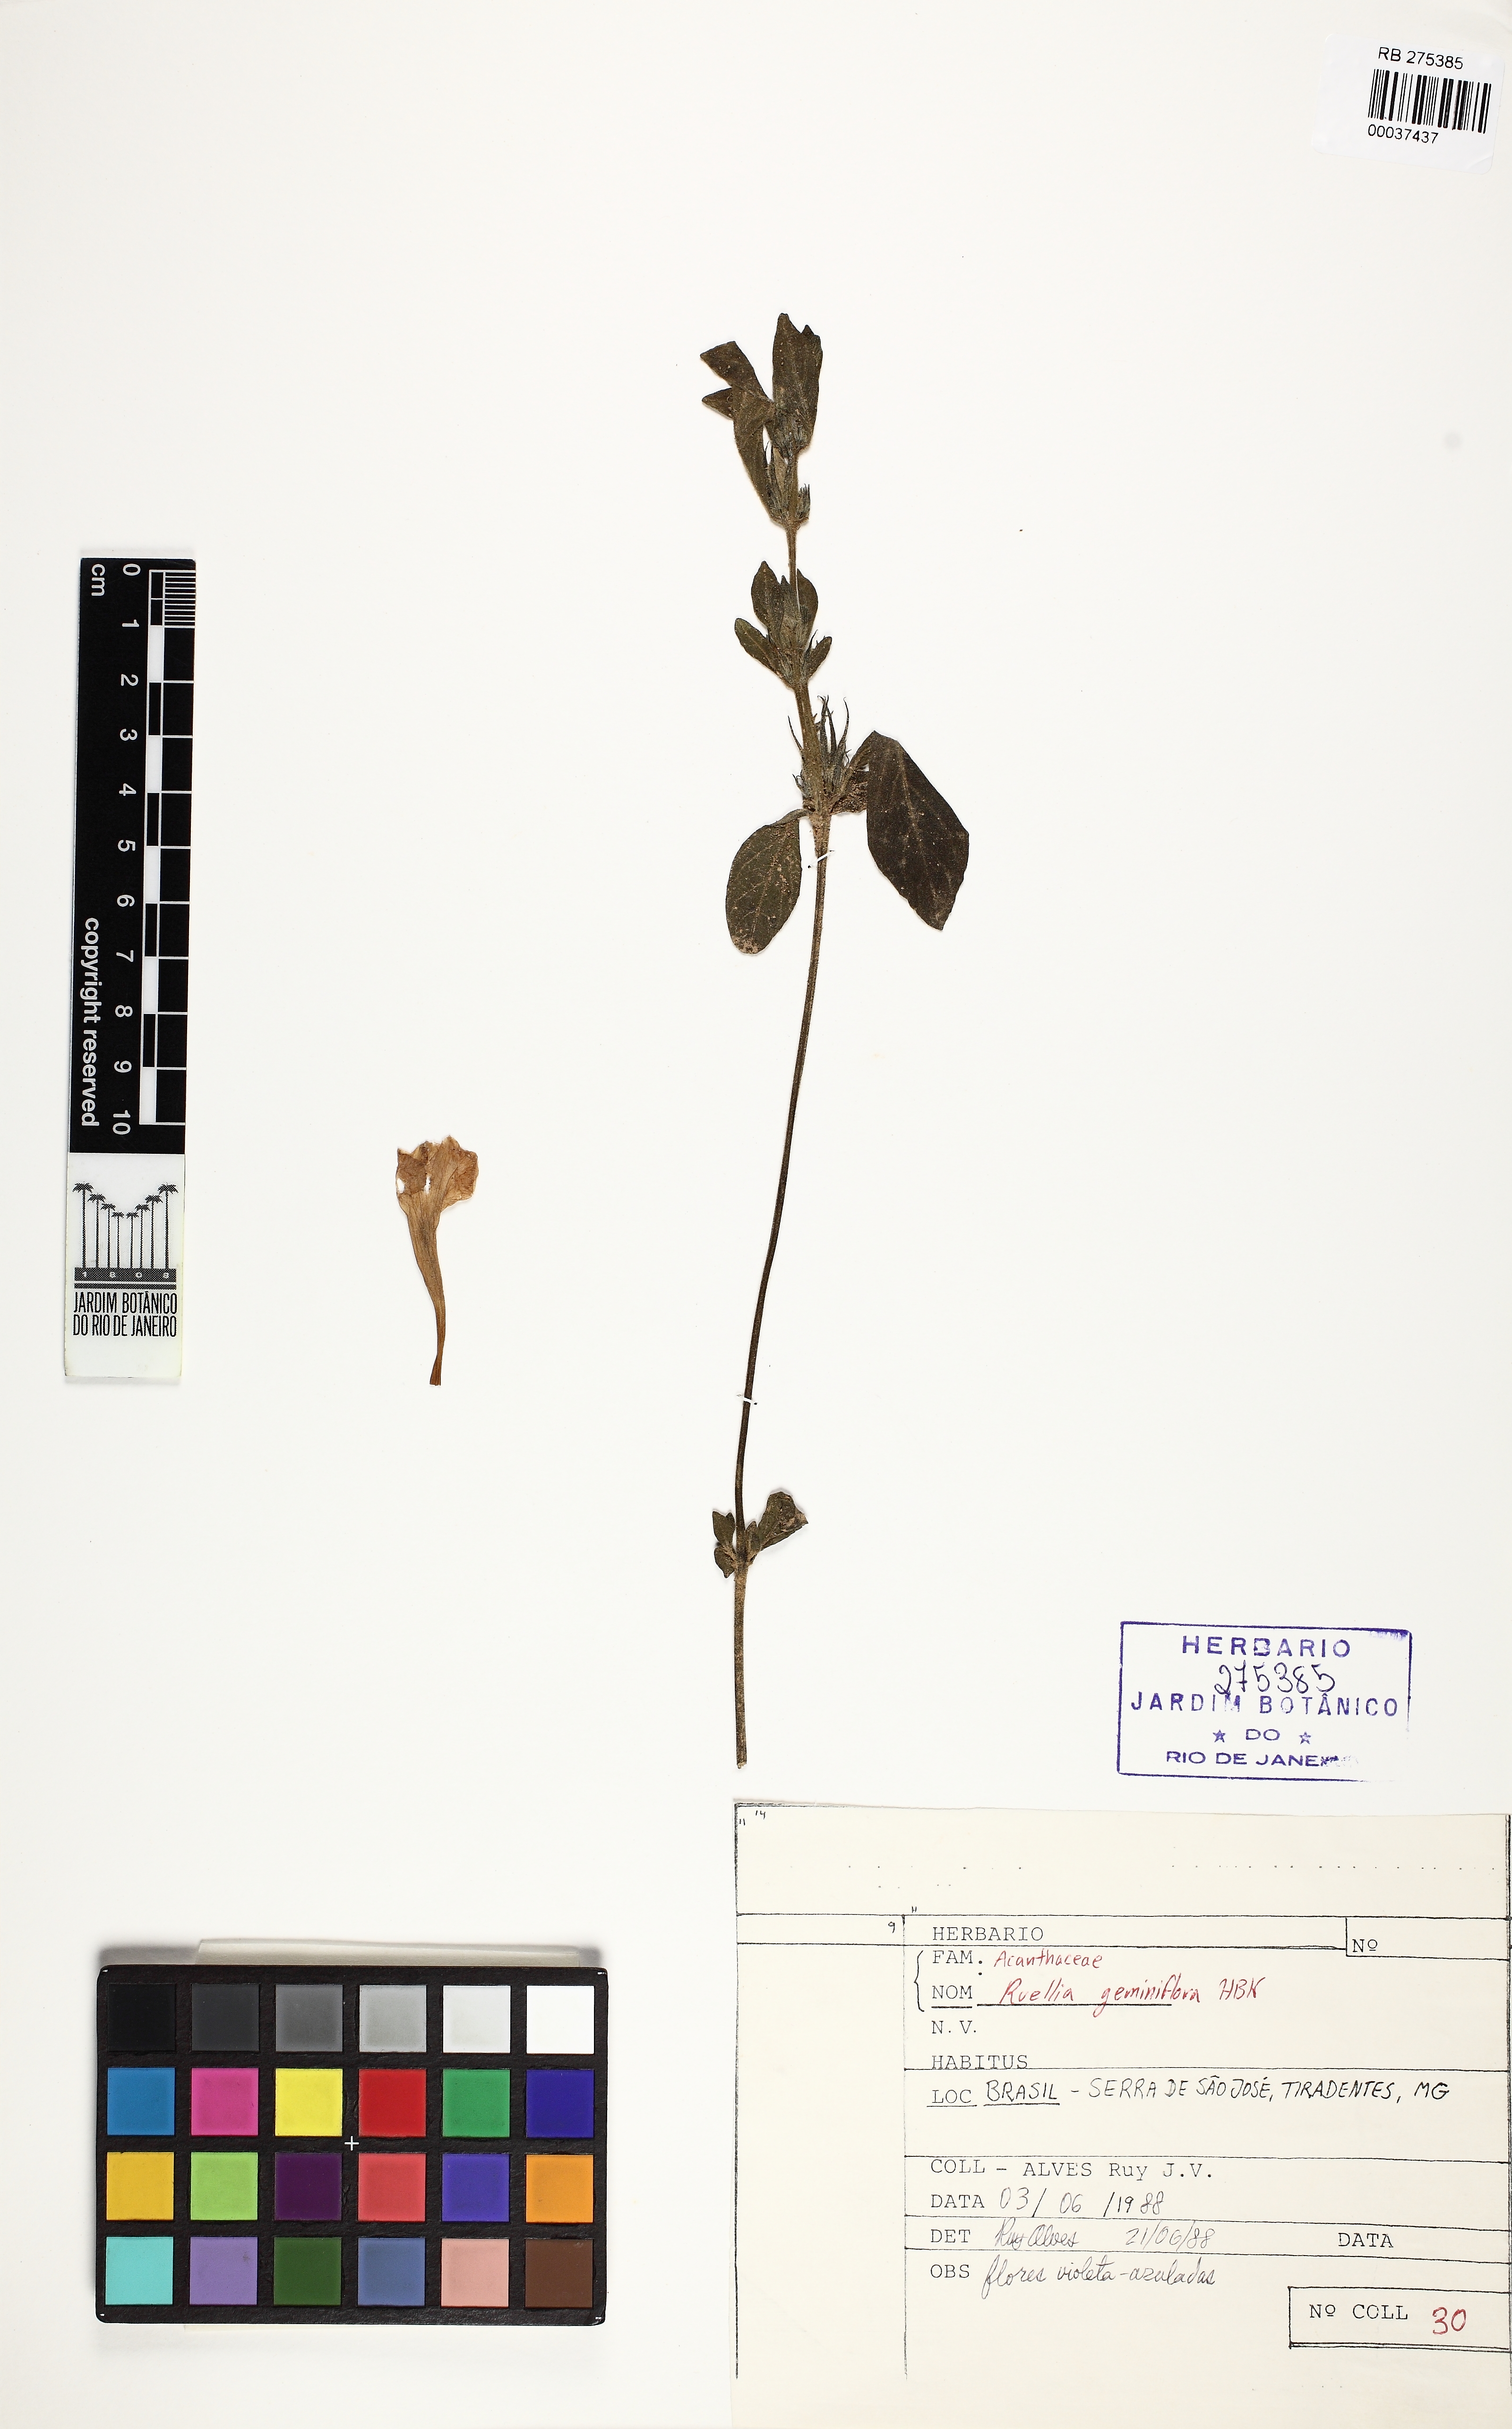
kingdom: Plantae
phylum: Tracheophyta
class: Magnoliopsida
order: Lamiales
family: Acanthaceae
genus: Ruellia
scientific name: Ruellia geminiflora
